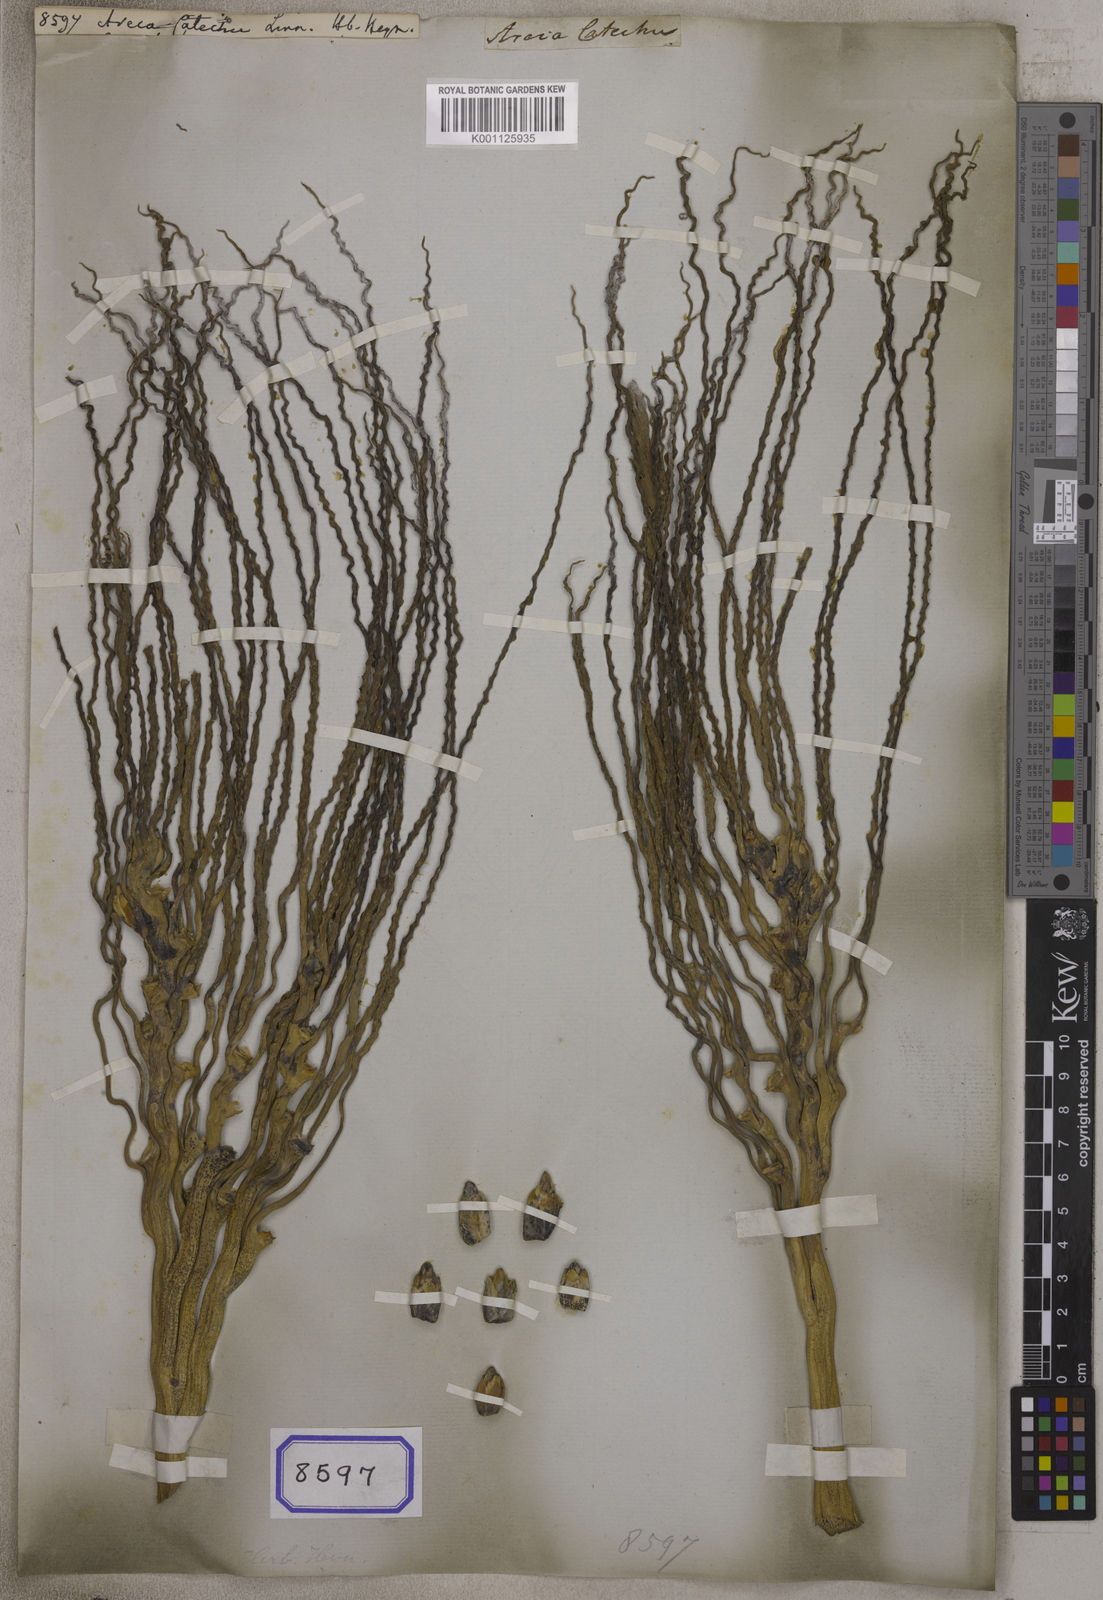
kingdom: Plantae
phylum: Tracheophyta
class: Liliopsida
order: Arecales
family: Arecaceae
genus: Areca
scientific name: Areca catechu
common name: Indian-nut
